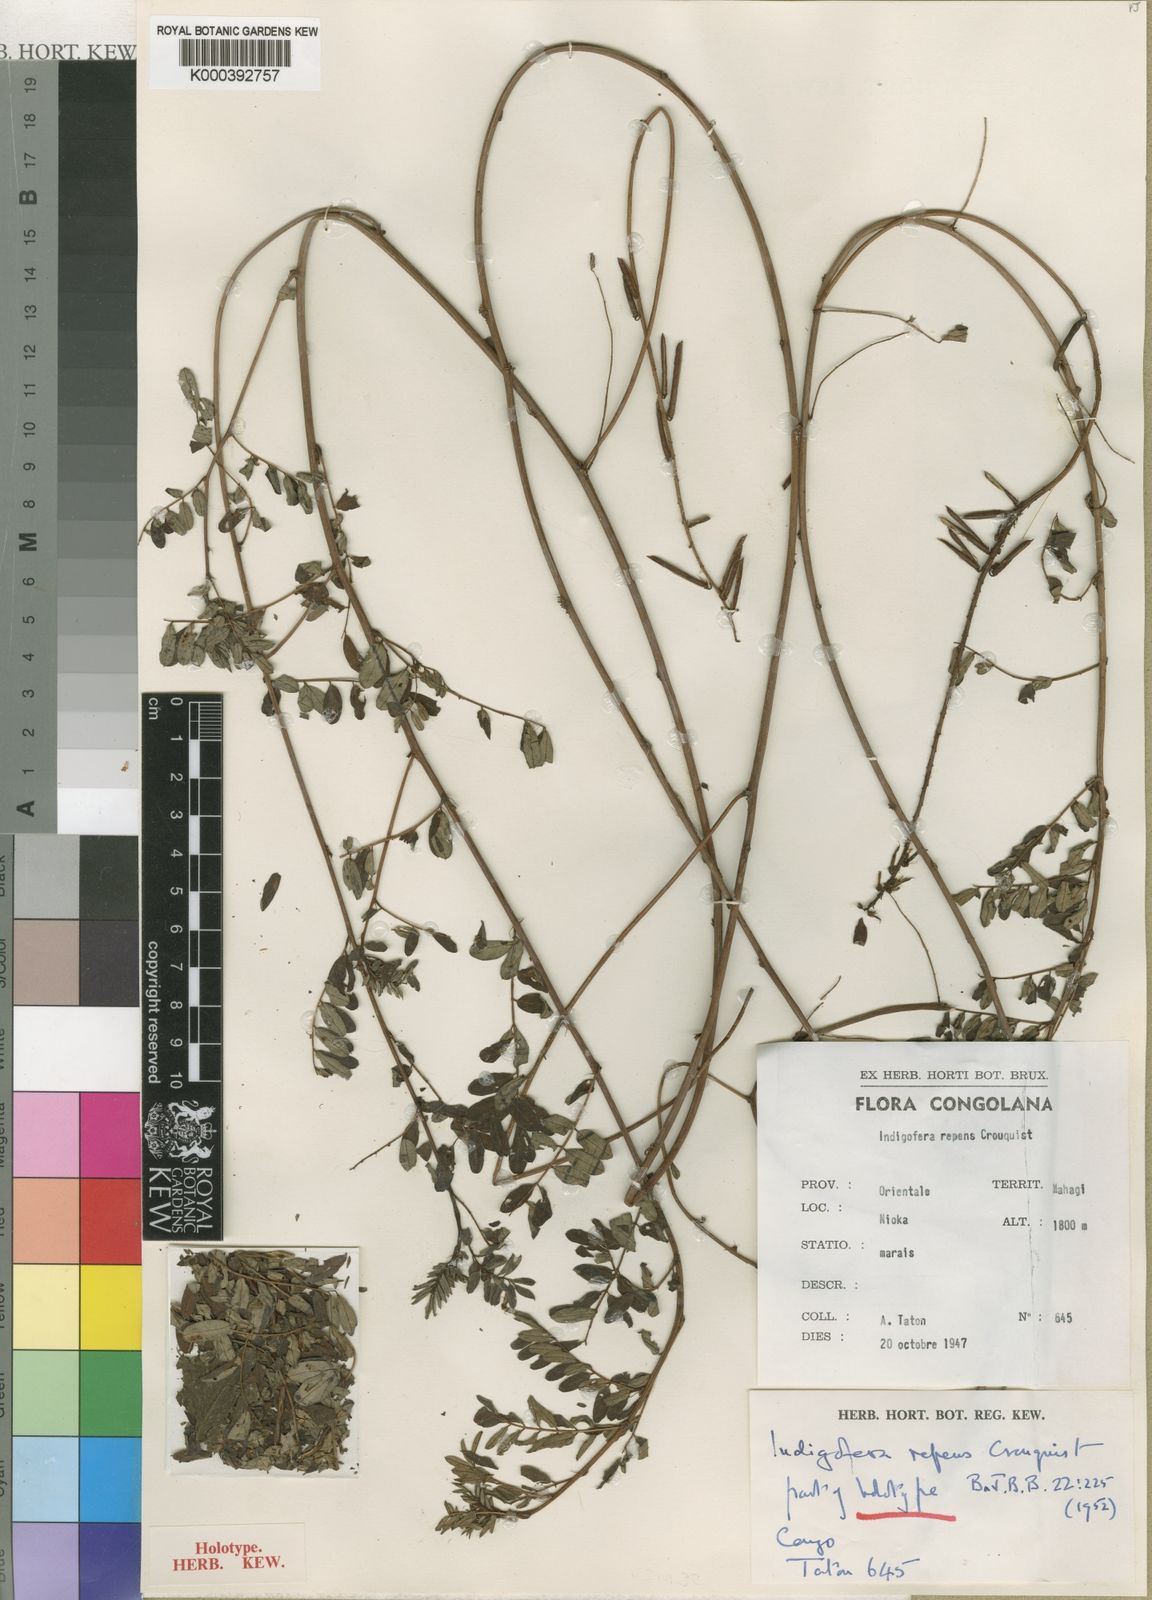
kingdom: Plantae
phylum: Tracheophyta
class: Magnoliopsida
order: Fabales
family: Fabaceae
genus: Indigofera
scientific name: Indigofera repens
